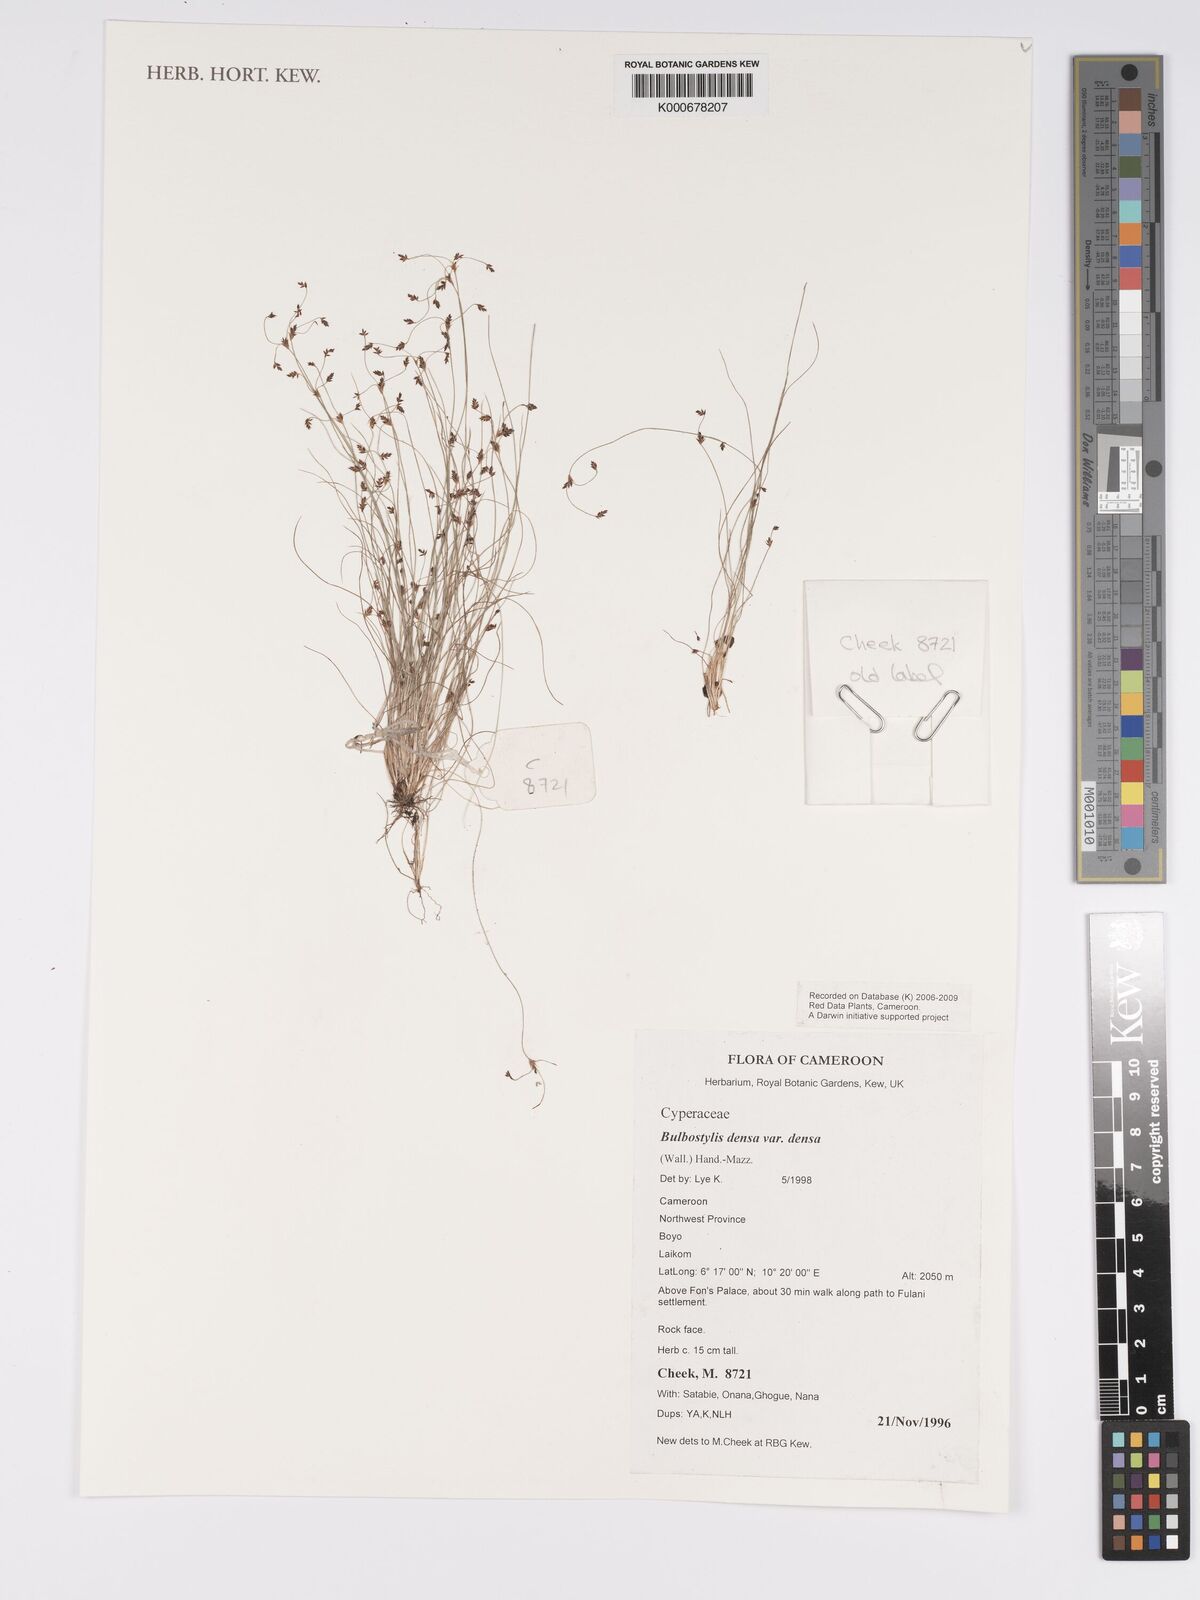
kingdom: Plantae
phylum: Tracheophyta
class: Liliopsida
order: Poales
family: Cyperaceae
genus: Bulbostylis
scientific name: Bulbostylis densa
